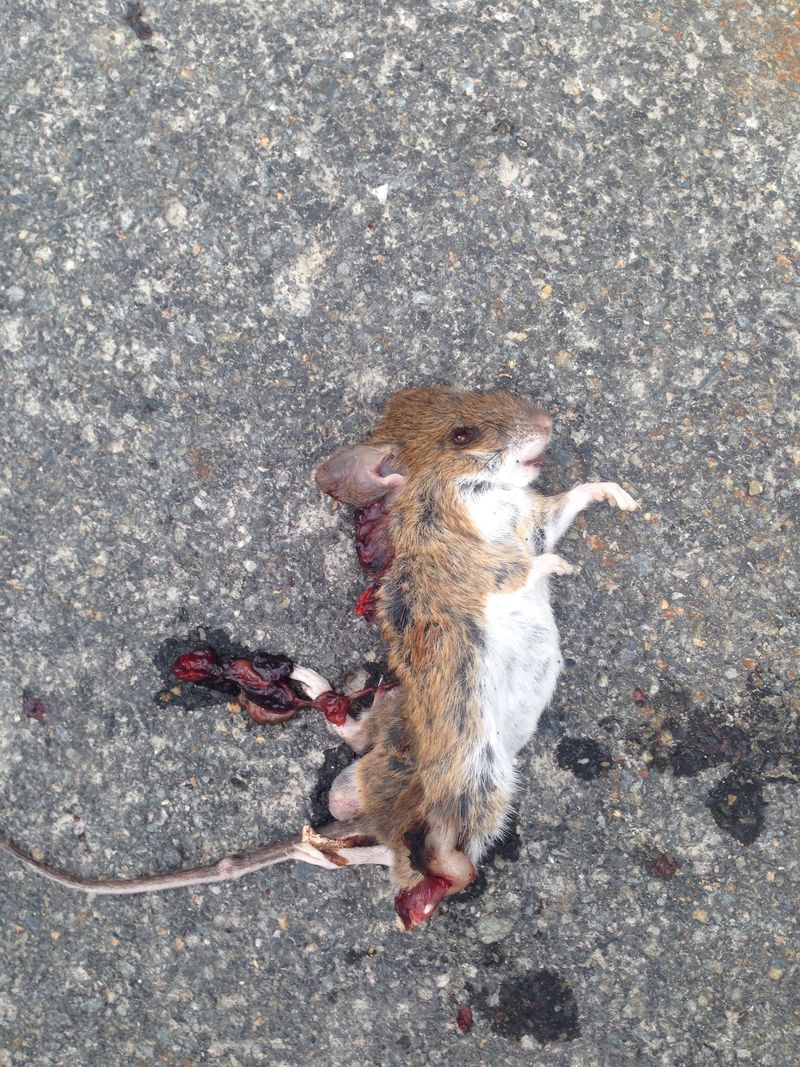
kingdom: Animalia
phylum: Chordata
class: Mammalia
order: Rodentia
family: Muridae
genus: Apodemus
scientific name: Apodemus
